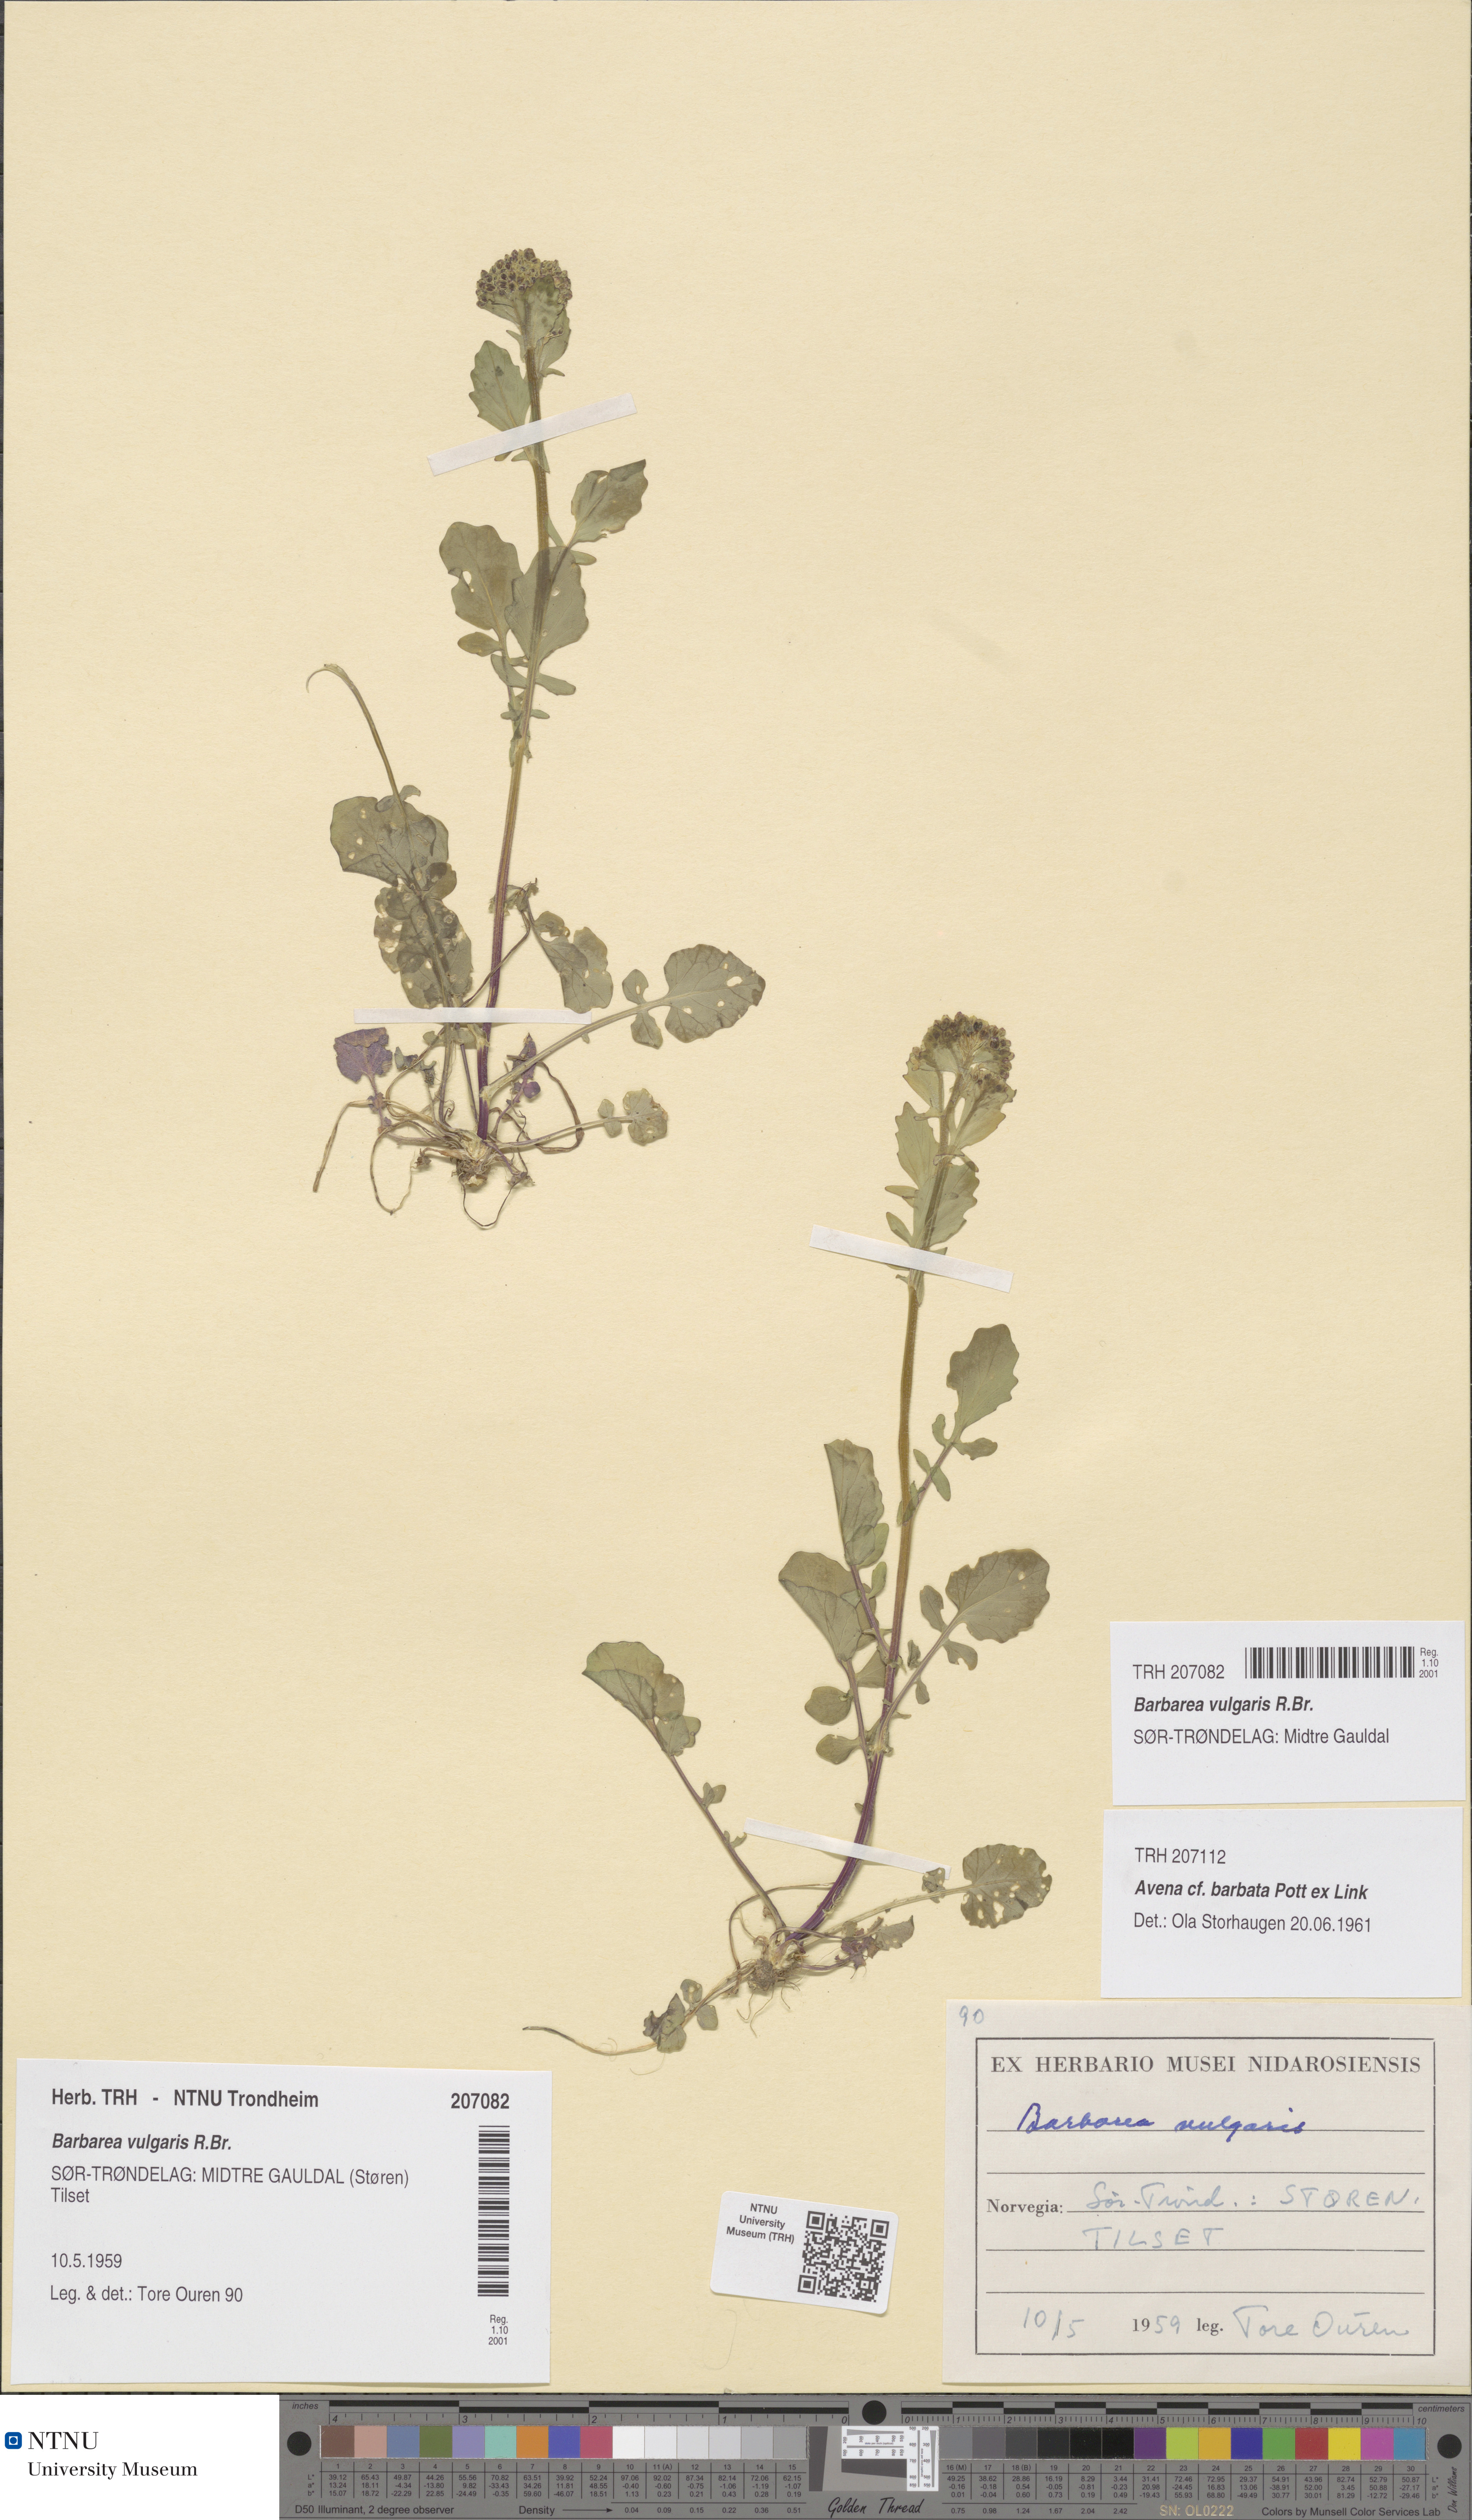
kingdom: Plantae
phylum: Tracheophyta
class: Magnoliopsida
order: Brassicales
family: Brassicaceae
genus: Barbarea
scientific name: Barbarea vulgaris
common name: Cressy-greens
